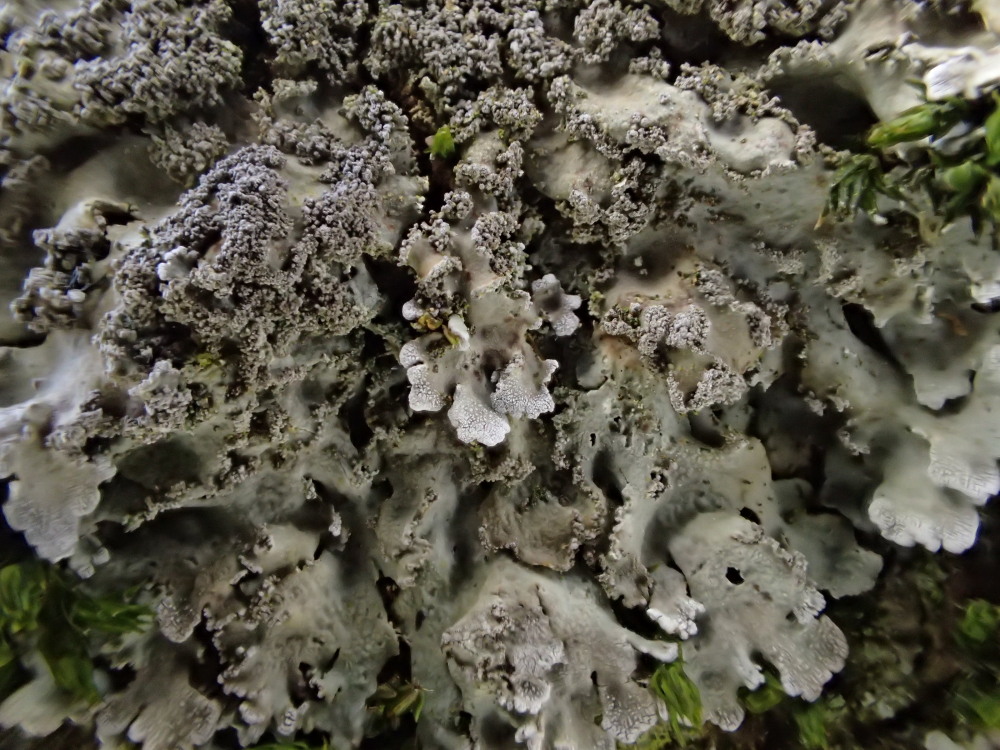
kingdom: Fungi
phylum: Ascomycota
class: Lecanoromycetes
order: Caliciales
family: Physciaceae
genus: Physconia
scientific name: Physconia perisidiosa
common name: liden dugrosetlav
